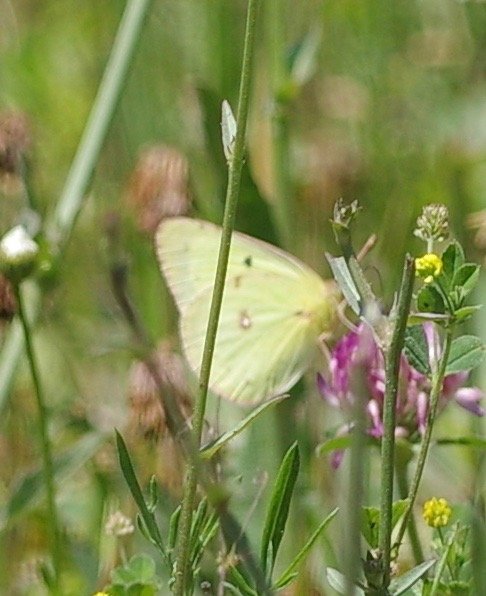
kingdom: Animalia
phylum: Arthropoda
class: Insecta
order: Lepidoptera
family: Pieridae
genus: Colias
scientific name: Colias philodice
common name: Clouded Sulphur
